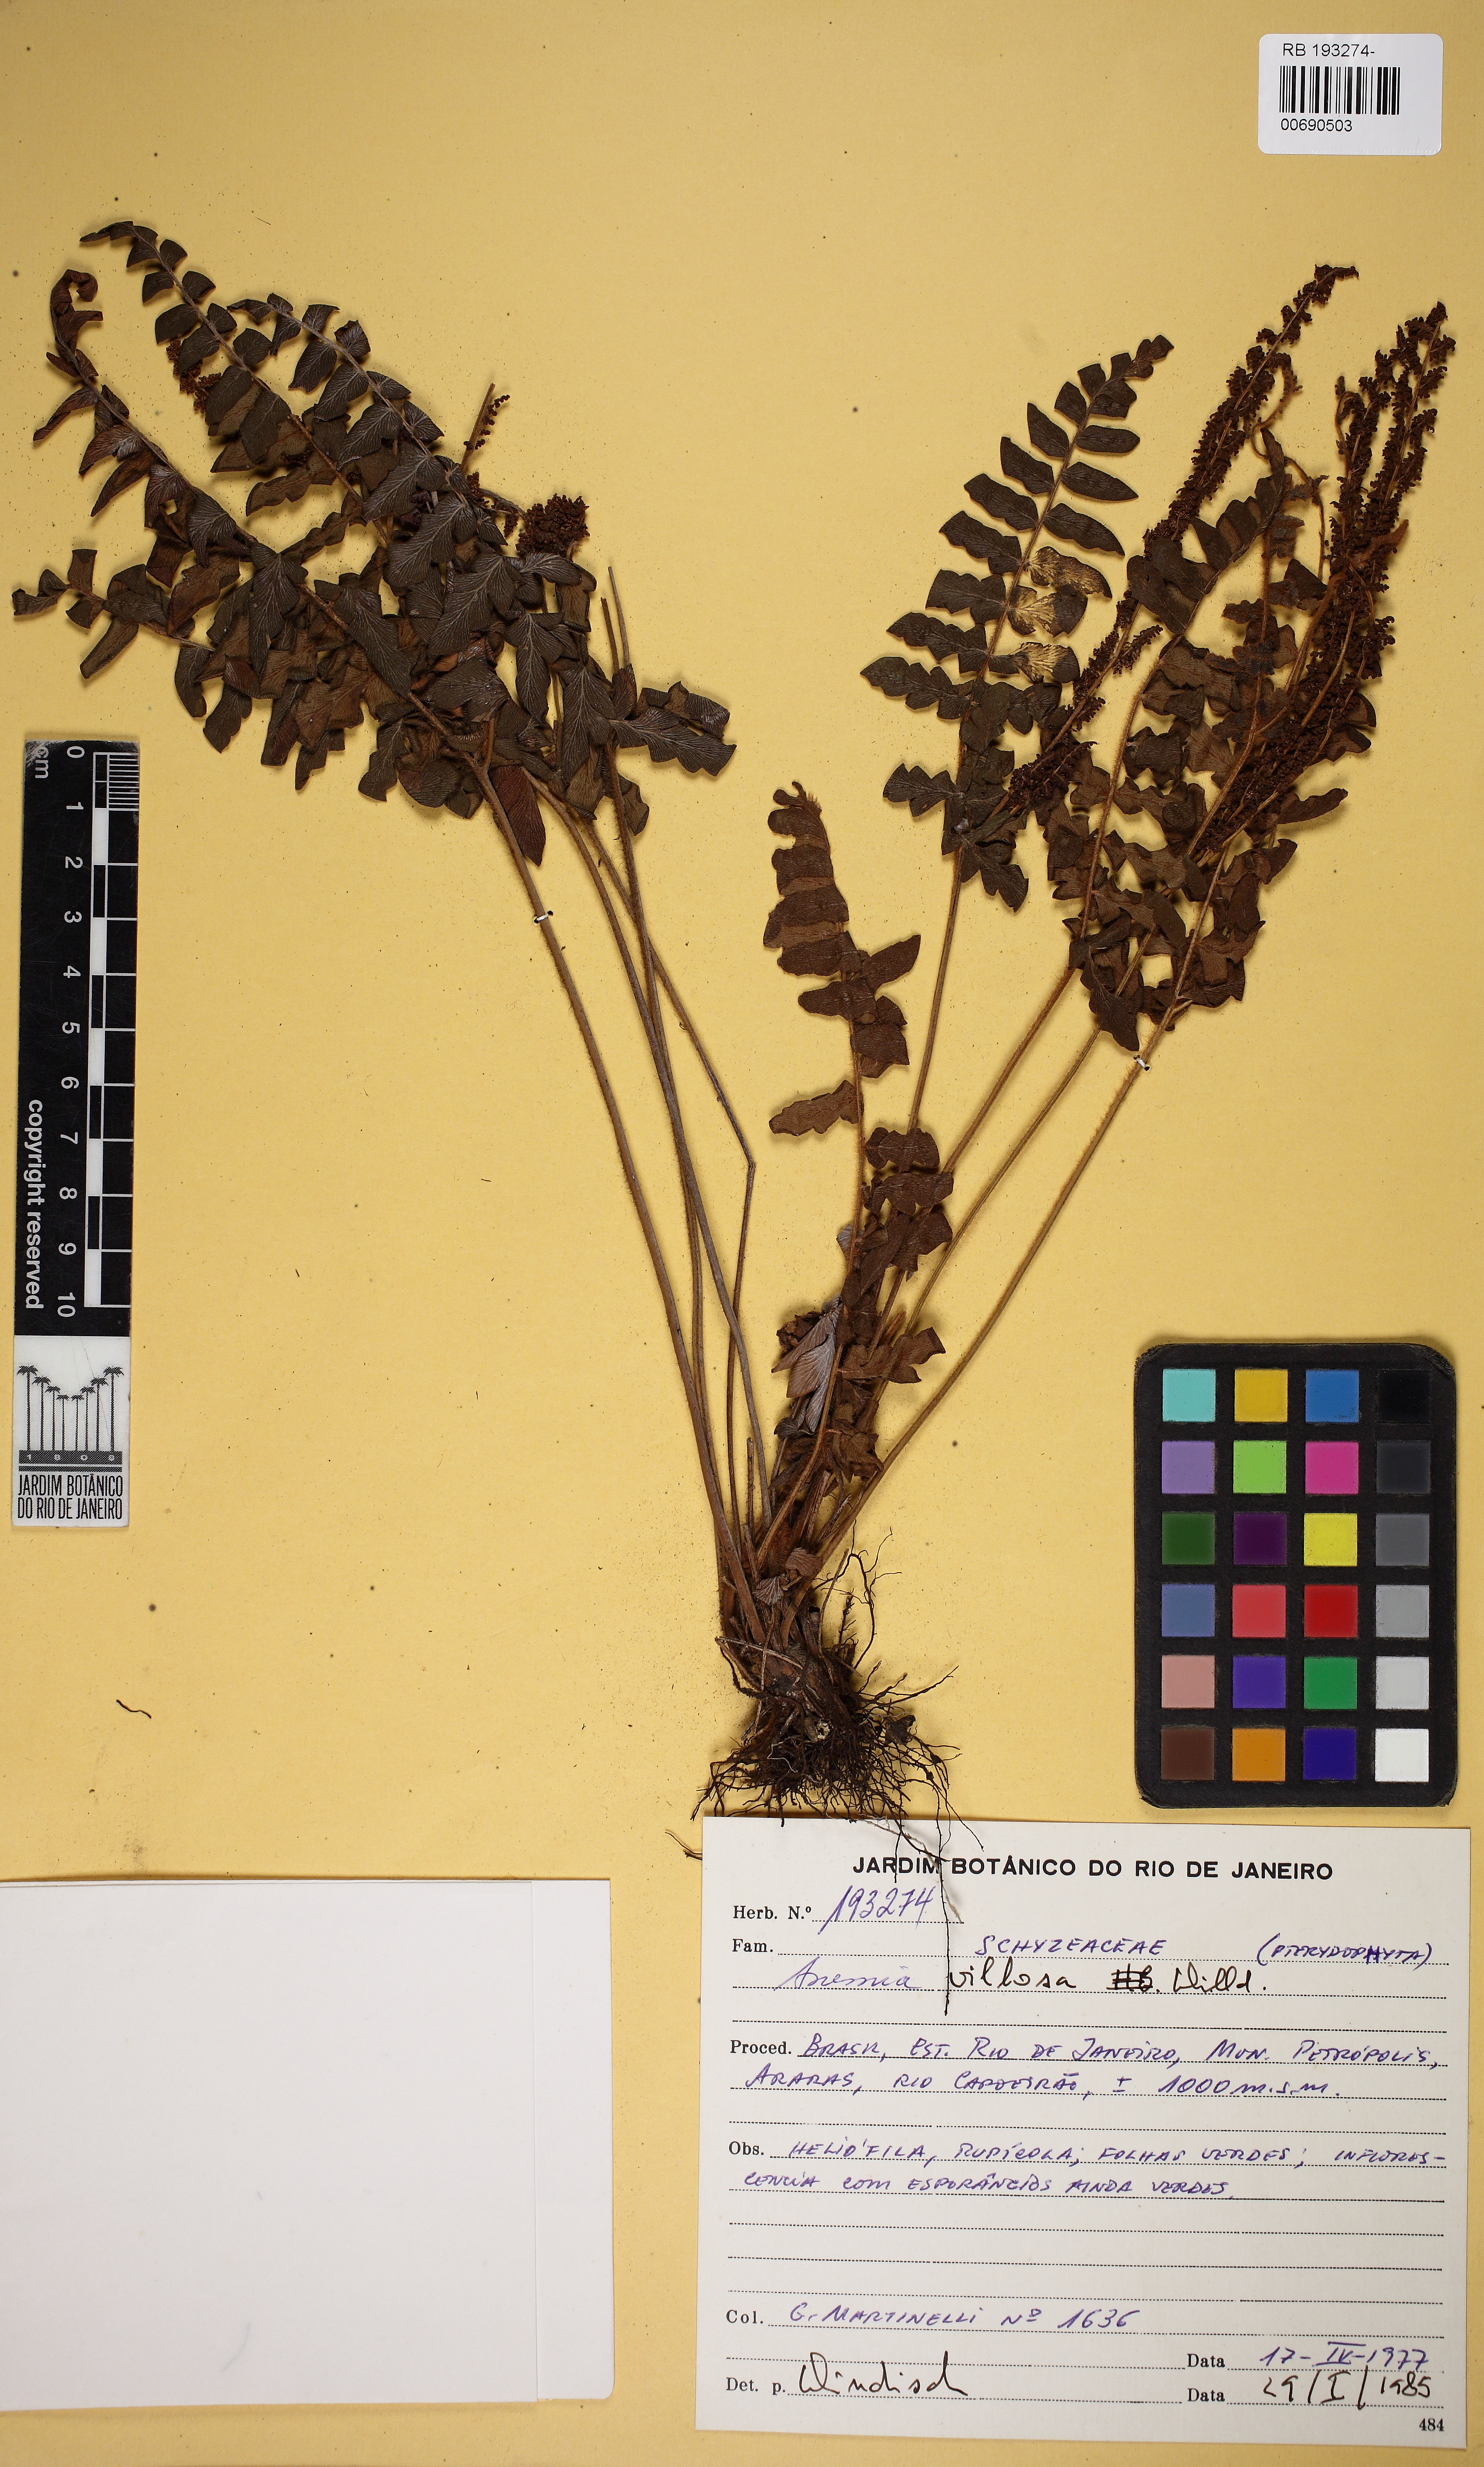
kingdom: Plantae
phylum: Tracheophyta
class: Polypodiopsida
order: Schizaeales
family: Anemiaceae
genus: Anemia
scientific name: Anemia villosa
